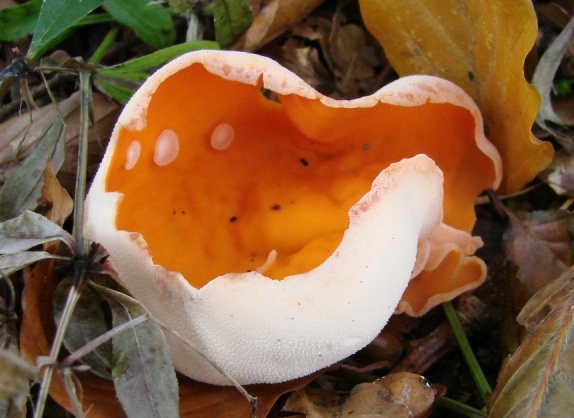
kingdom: Fungi
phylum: Ascomycota
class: Pezizomycetes
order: Pezizales
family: Pyronemataceae
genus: Aleuria
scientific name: Aleuria aurantia
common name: almindelig orangebæger
